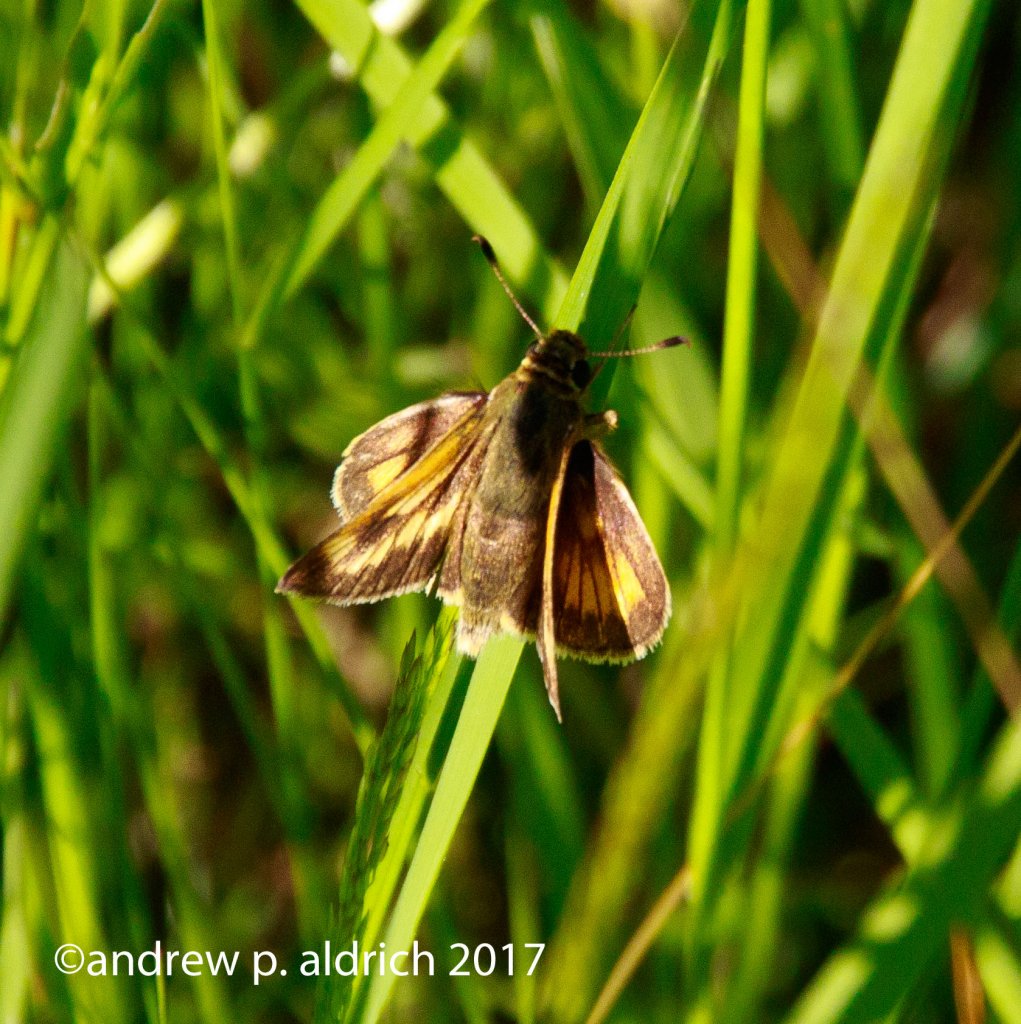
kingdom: Animalia
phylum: Arthropoda
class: Insecta
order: Lepidoptera
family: Hesperiidae
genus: Hesperia
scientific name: Hesperia sassacus
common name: Sassacus Skipper
